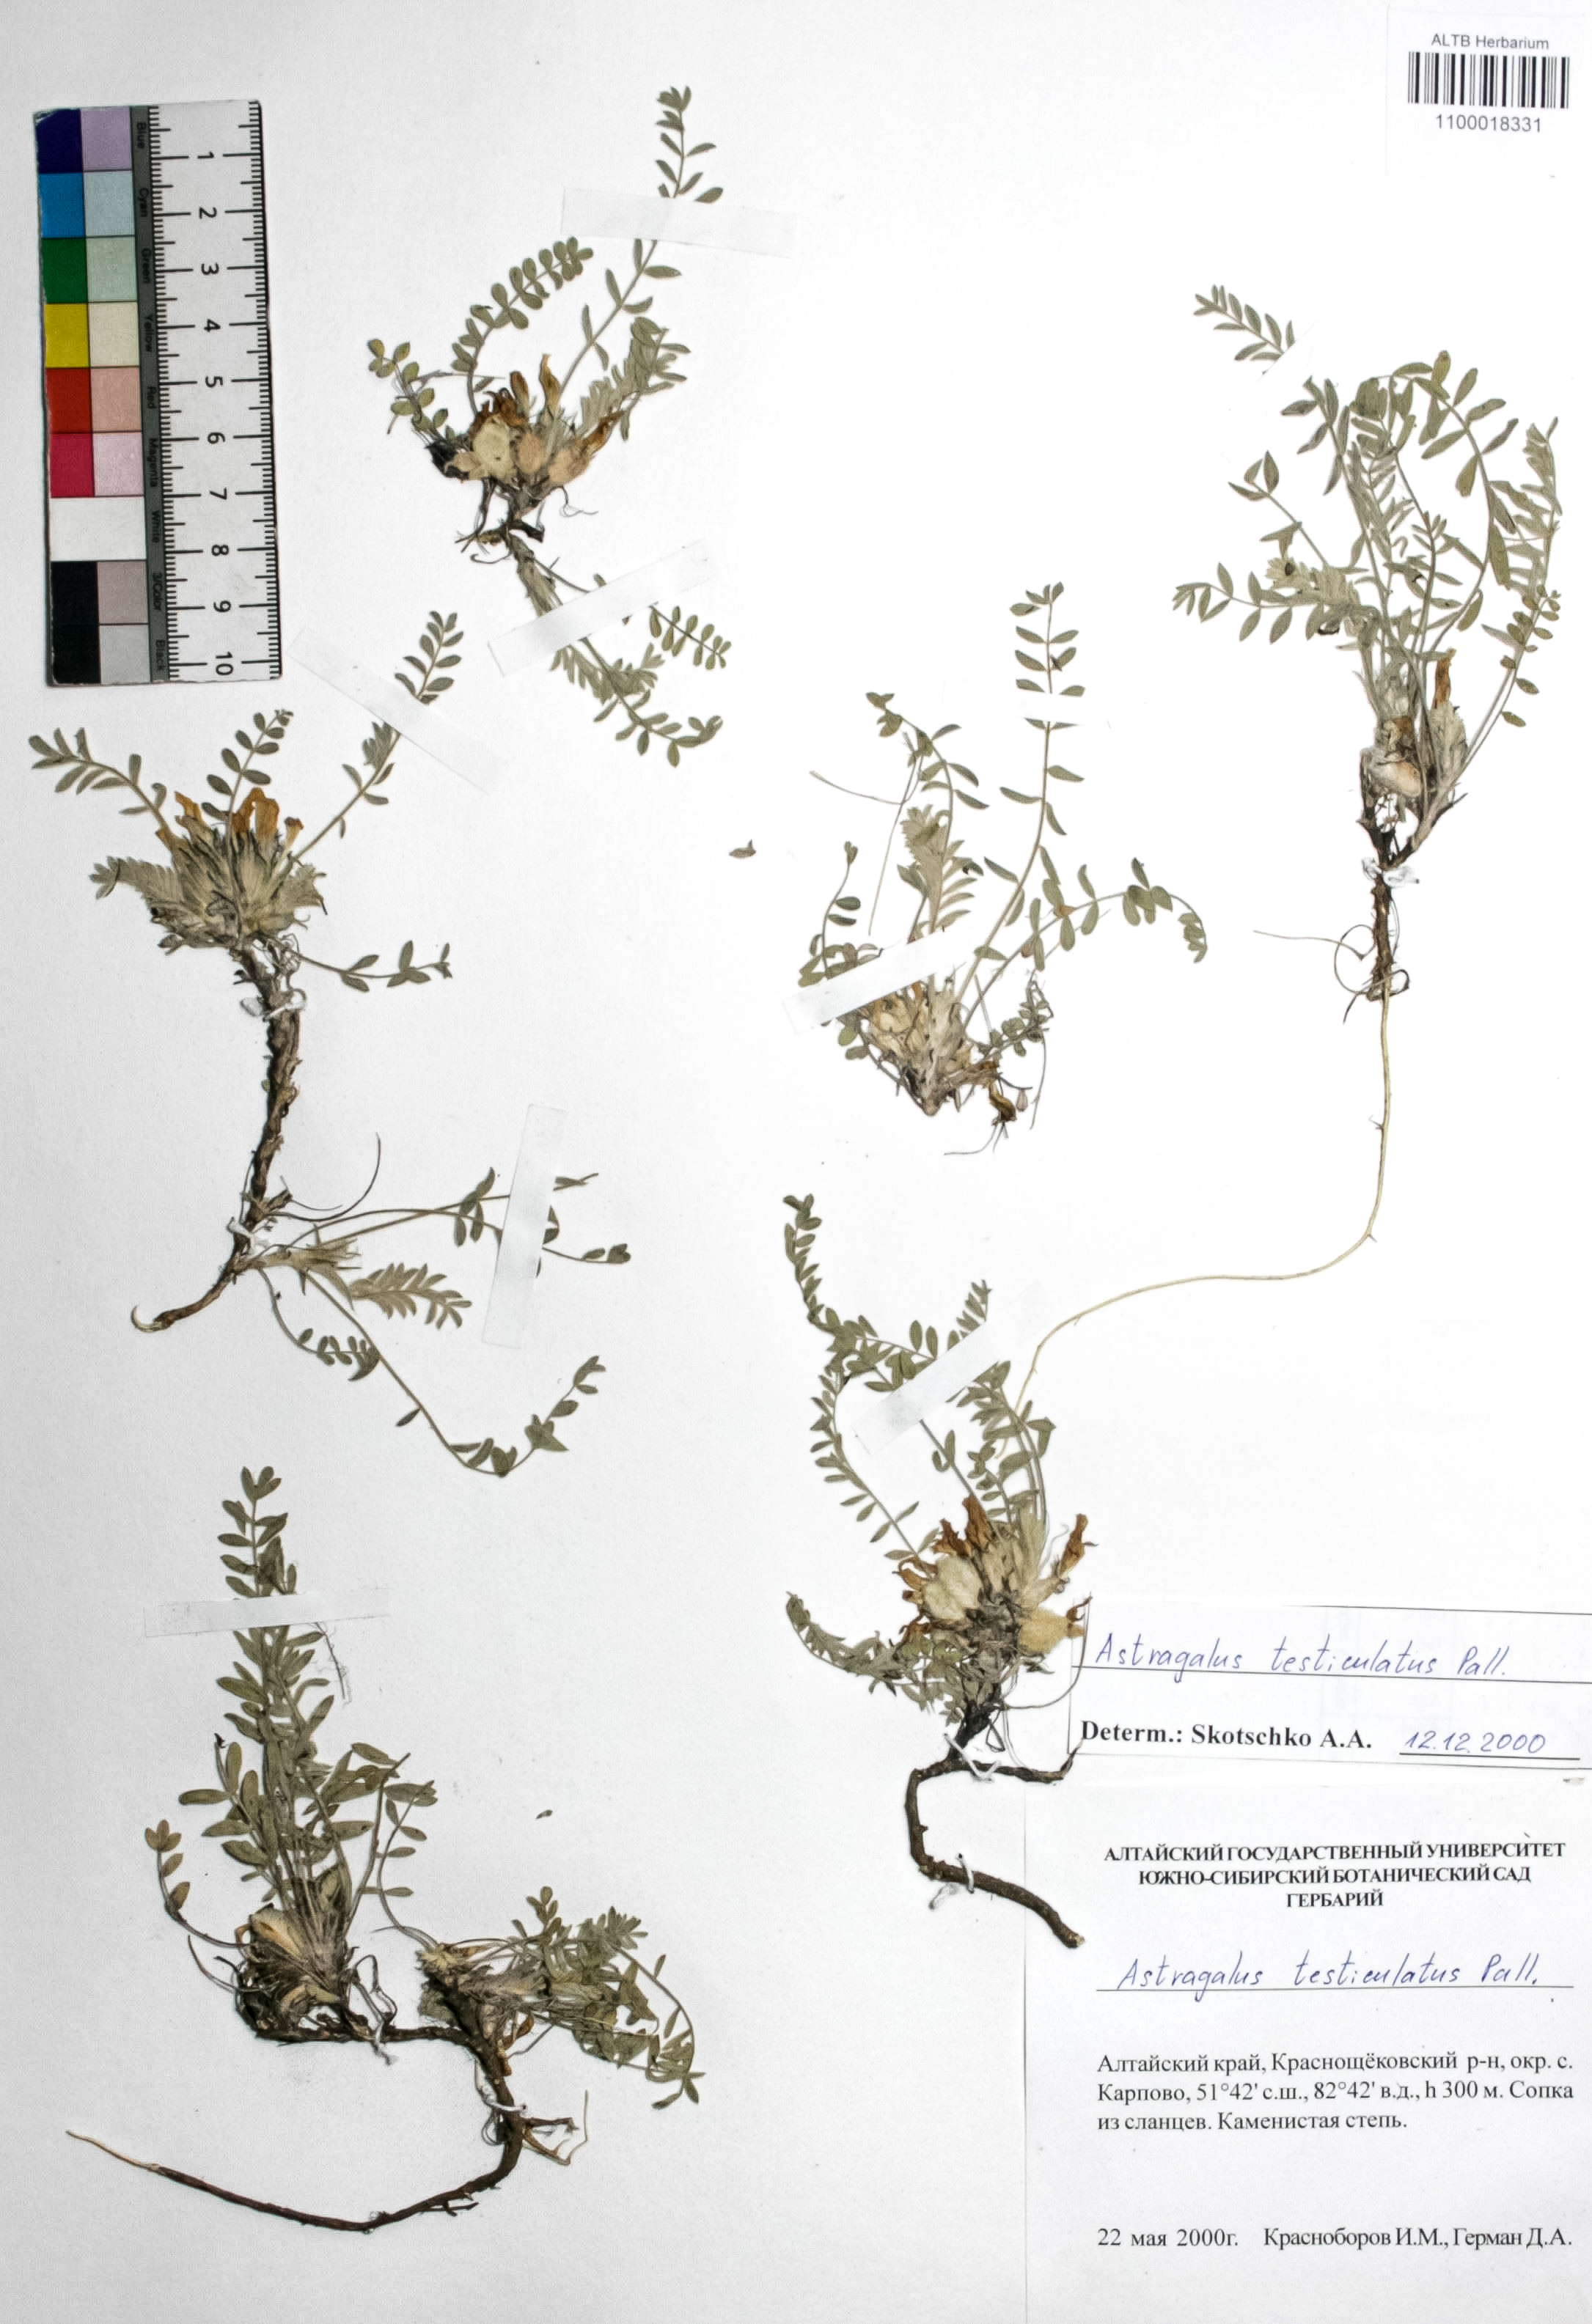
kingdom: Plantae
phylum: Tracheophyta
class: Magnoliopsida
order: Fabales
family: Fabaceae
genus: Astragalus
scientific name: Astragalus testiculatus
